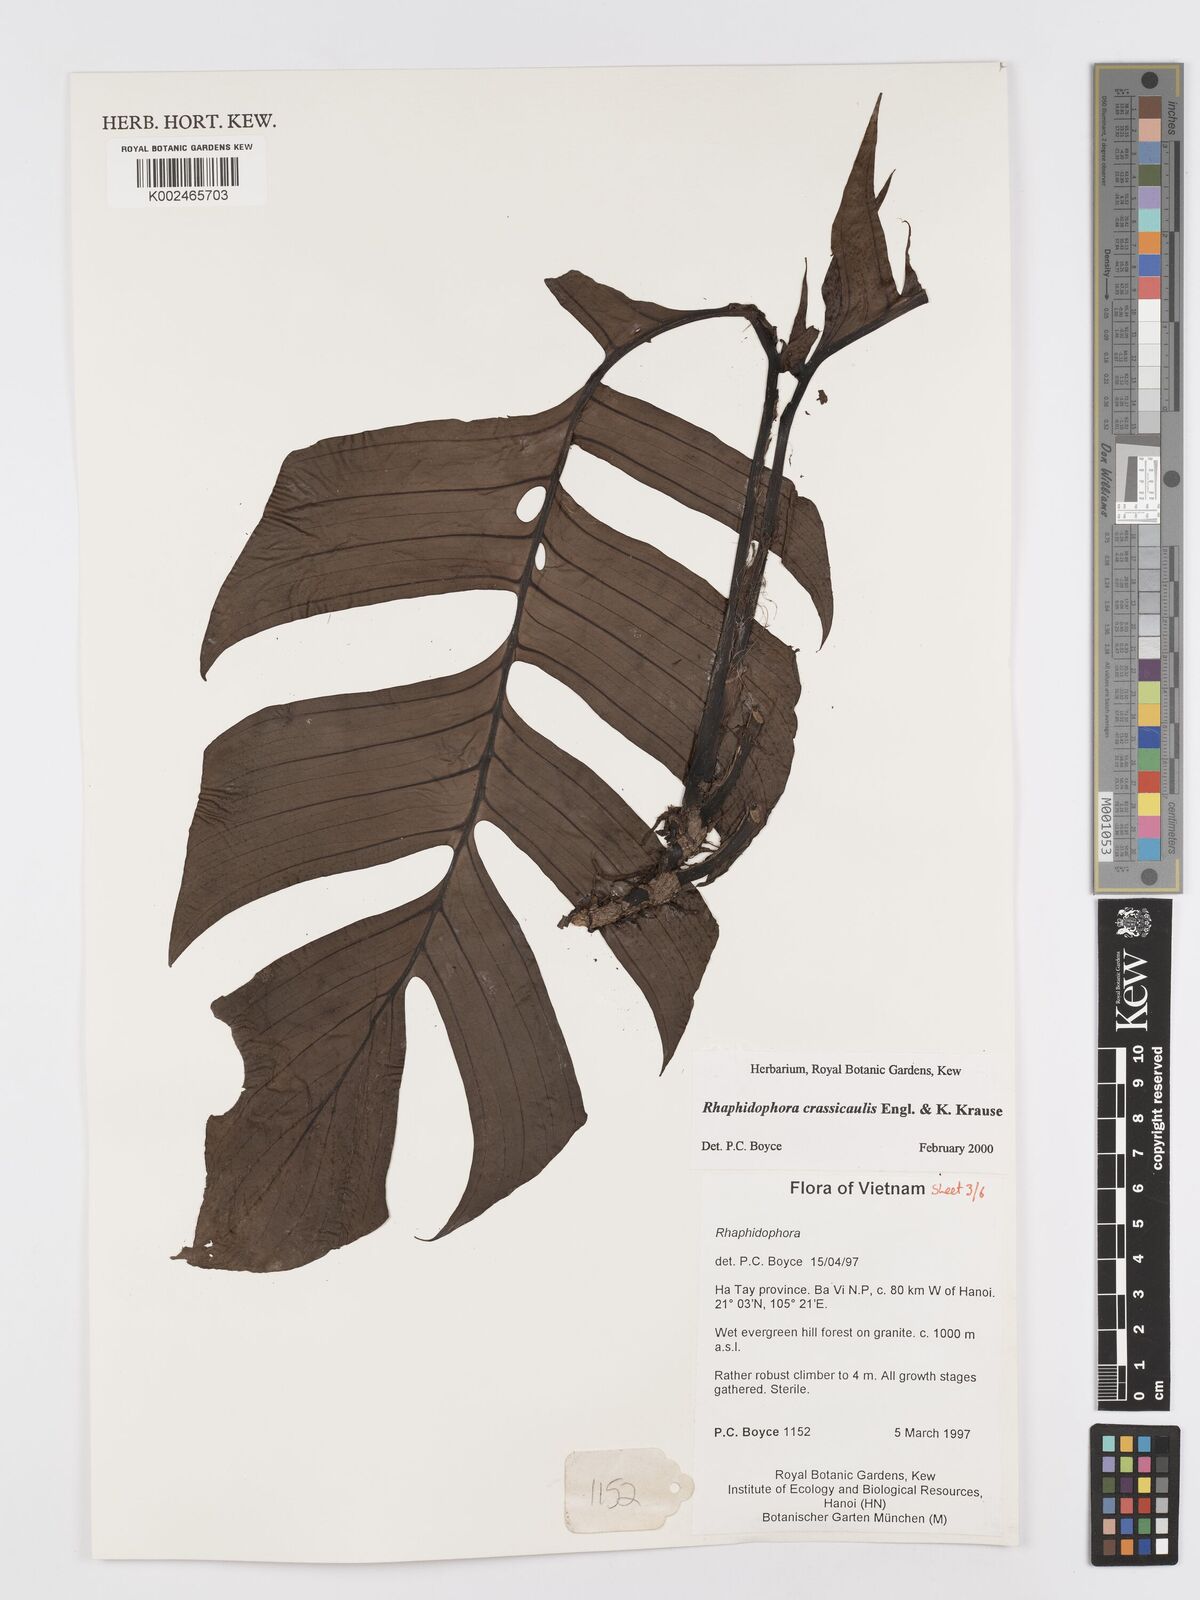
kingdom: Plantae
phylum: Tracheophyta
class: Liliopsida
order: Alismatales
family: Araceae
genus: Rhaphidophora
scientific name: Rhaphidophora crassicaulis
